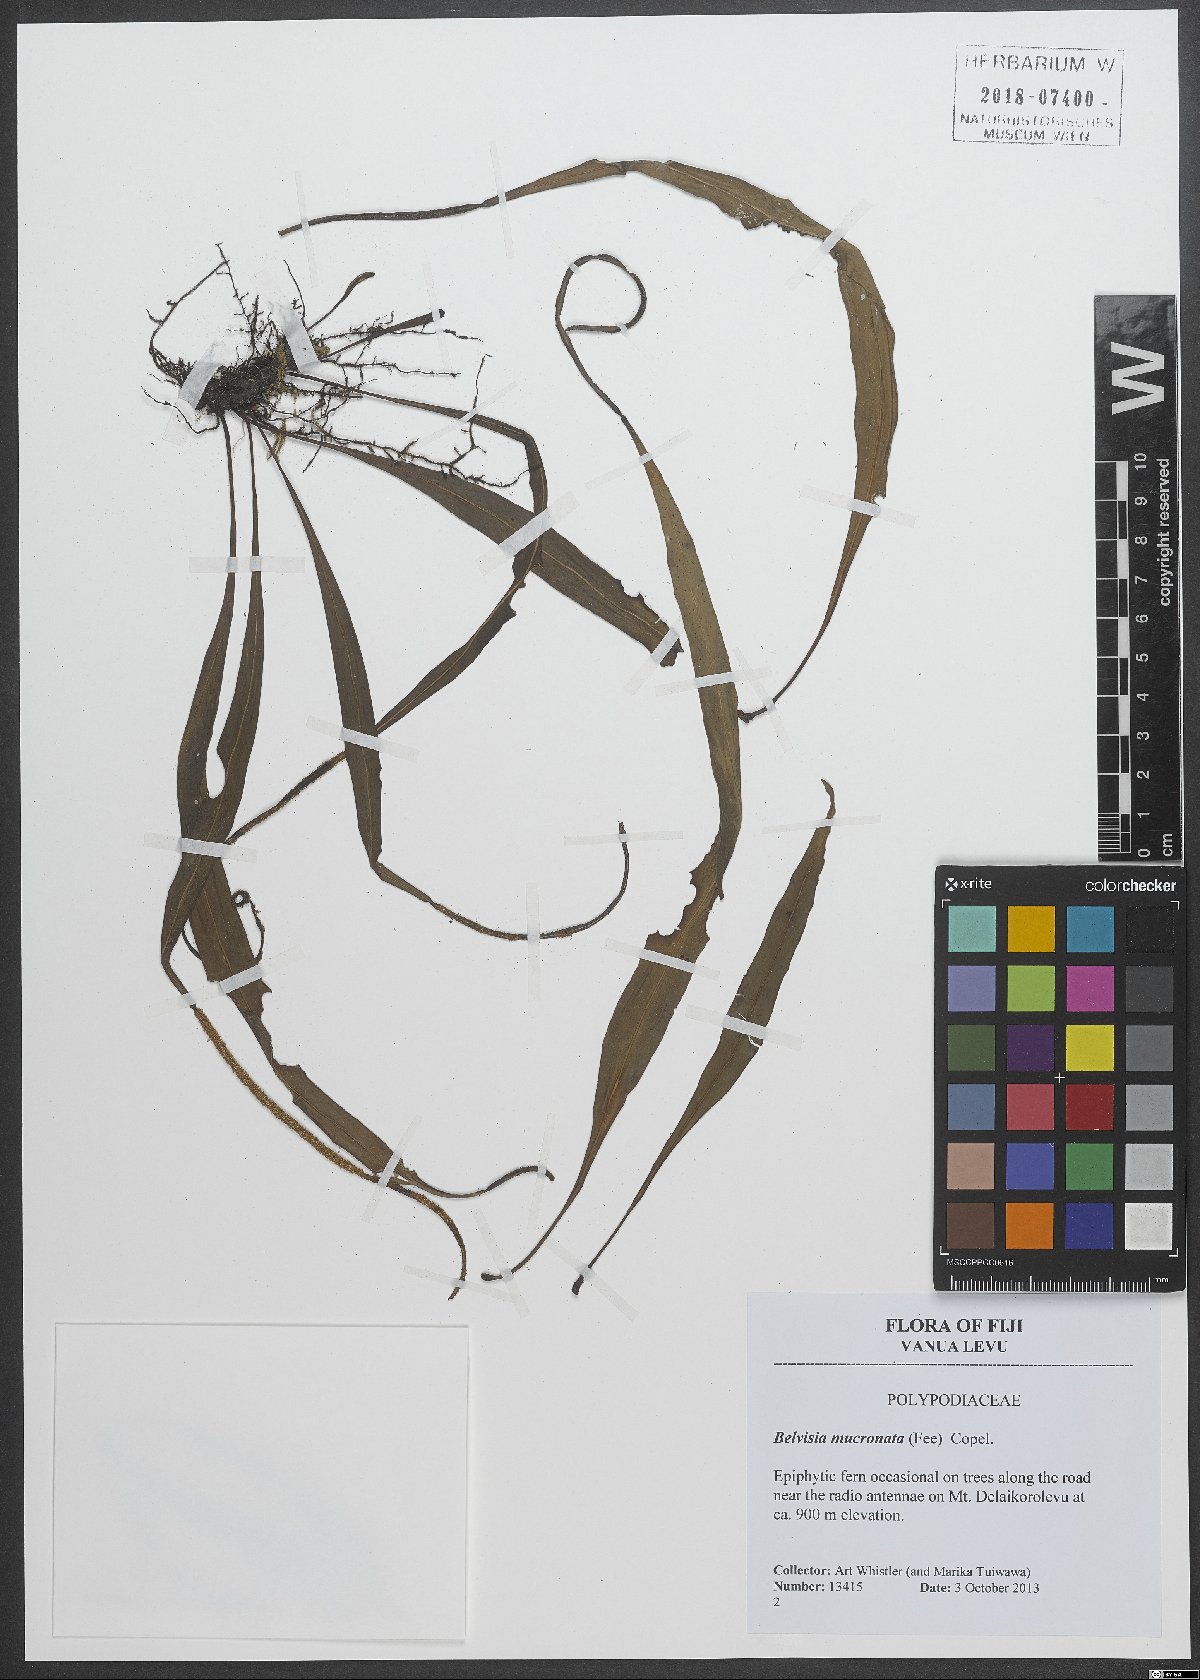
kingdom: Plantae
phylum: Tracheophyta
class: Polypodiopsida
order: Polypodiales
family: Polypodiaceae
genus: Lepisorus
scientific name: Lepisorus mucronatus
